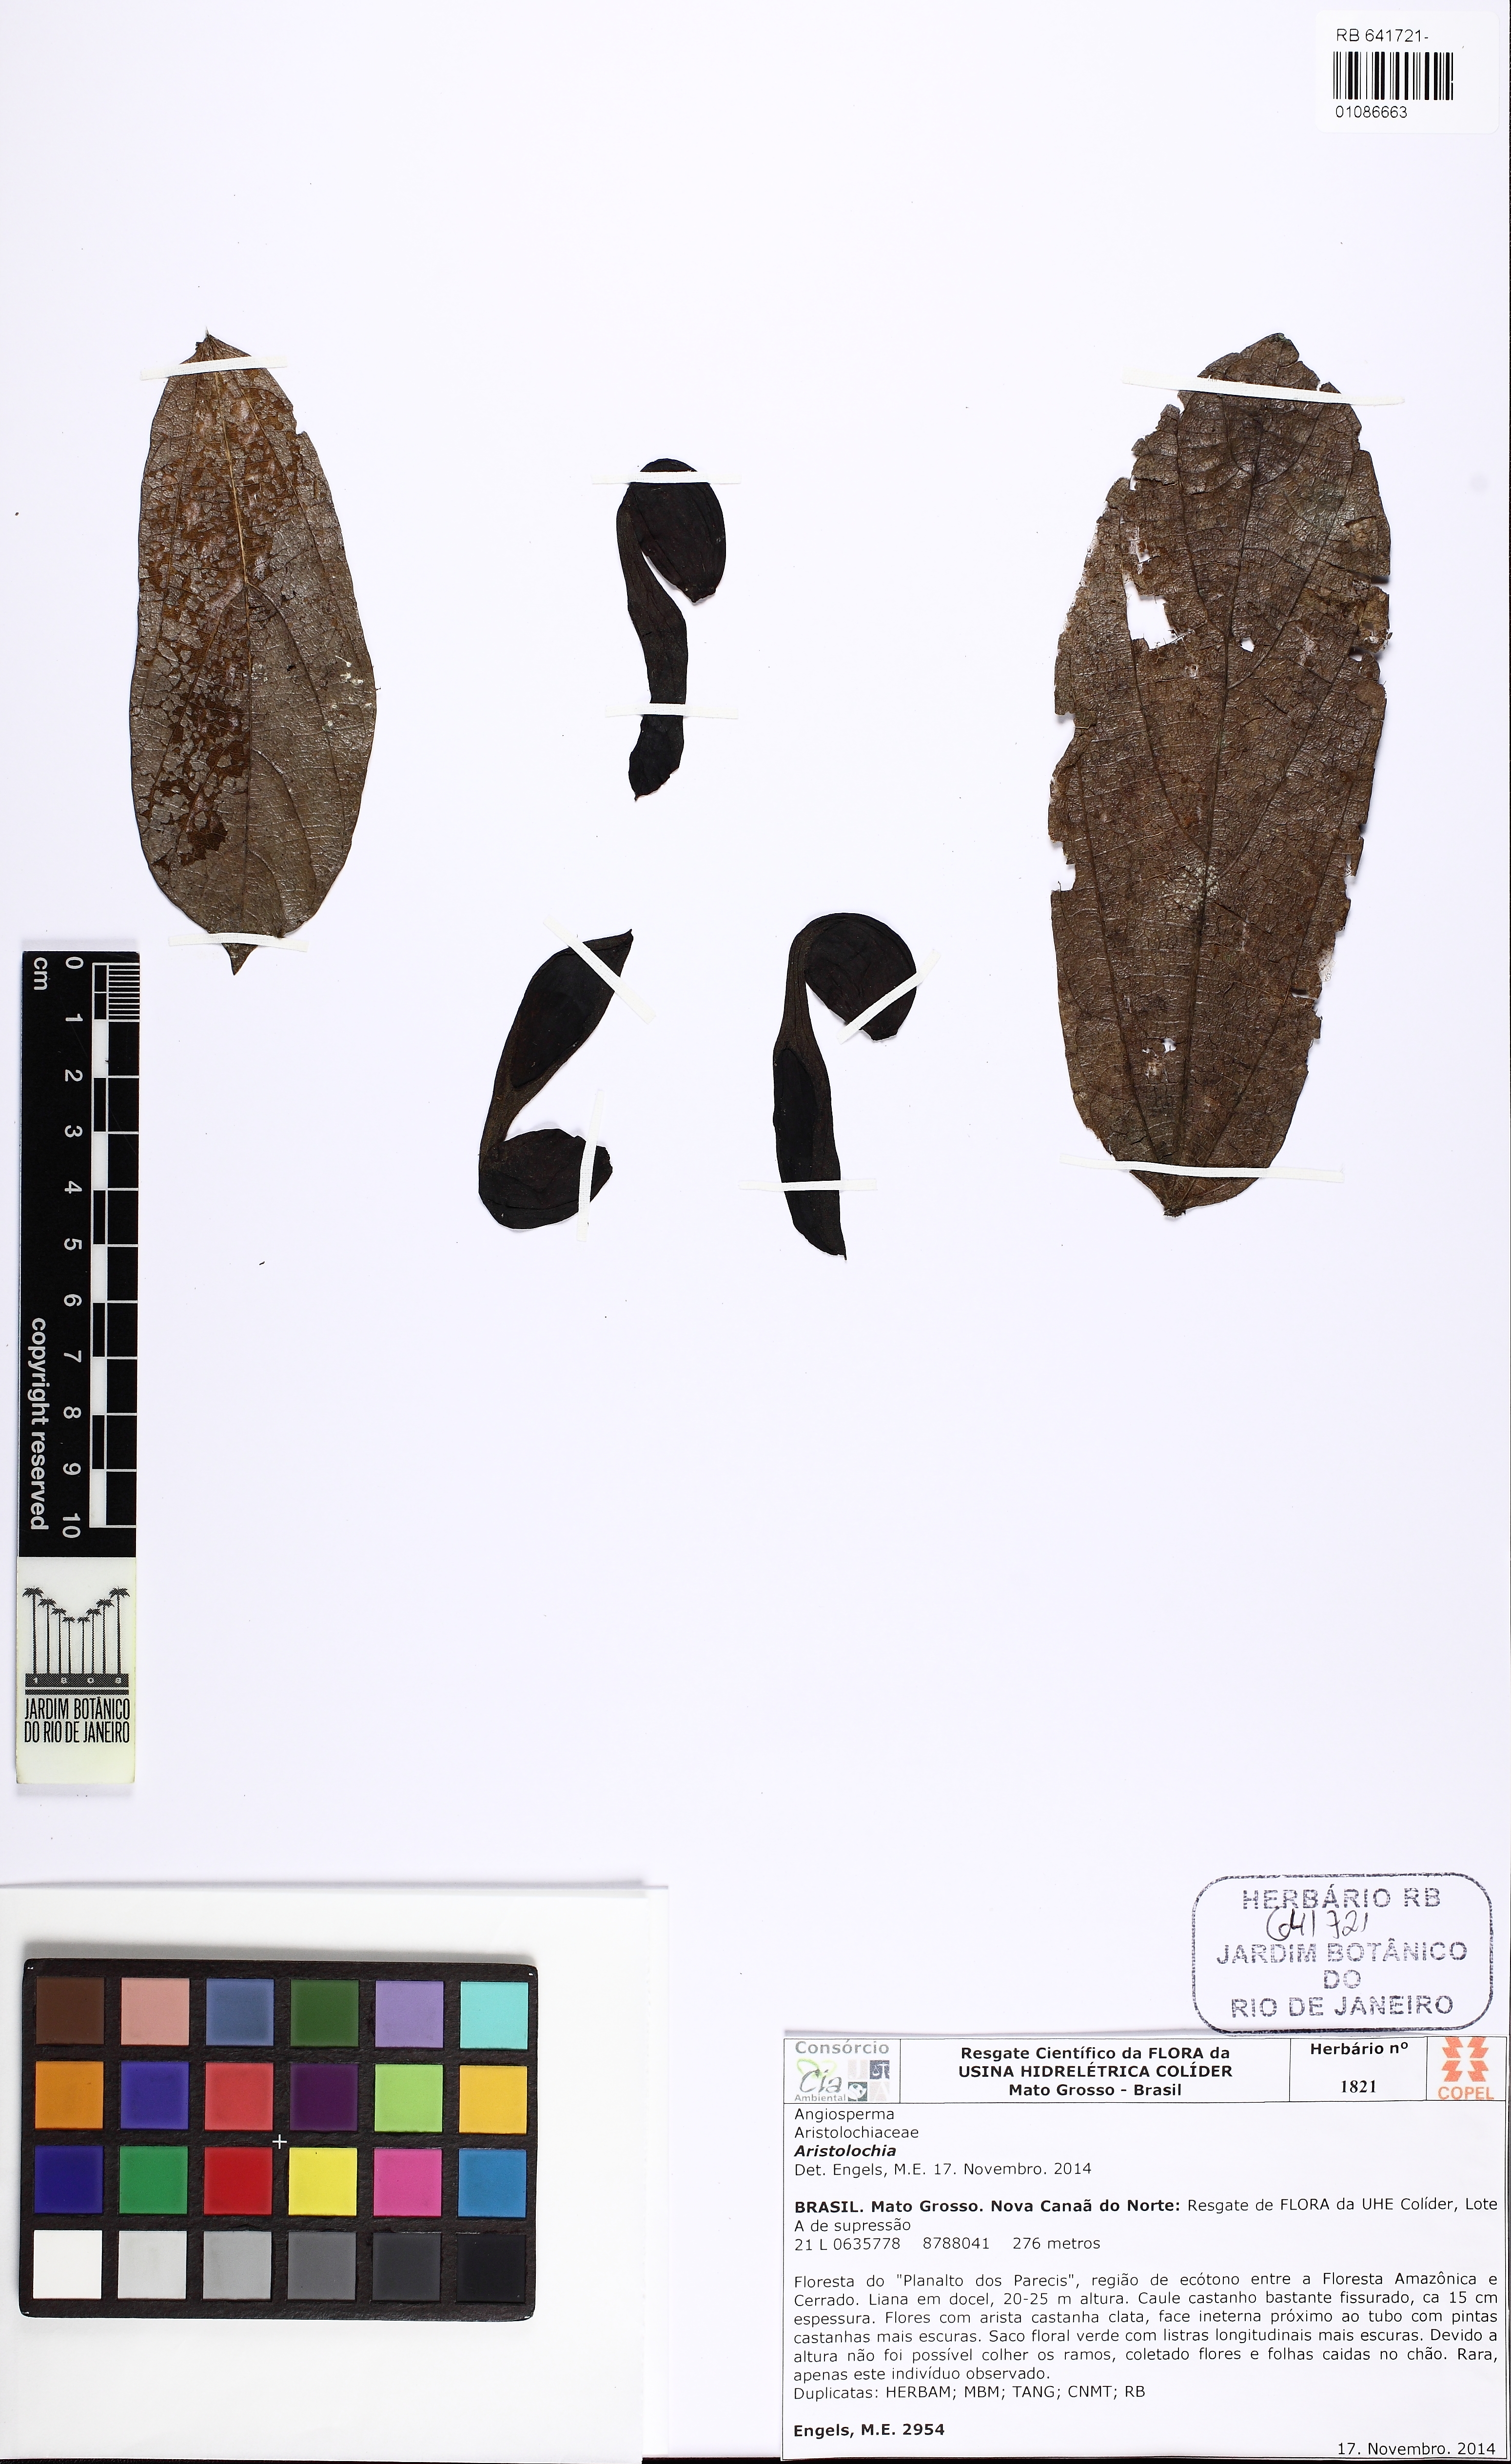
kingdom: Plantae
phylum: Tracheophyta
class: Magnoliopsida
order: Piperales
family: Aristolochiaceae
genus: Aristolochia
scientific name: Aristolochia
